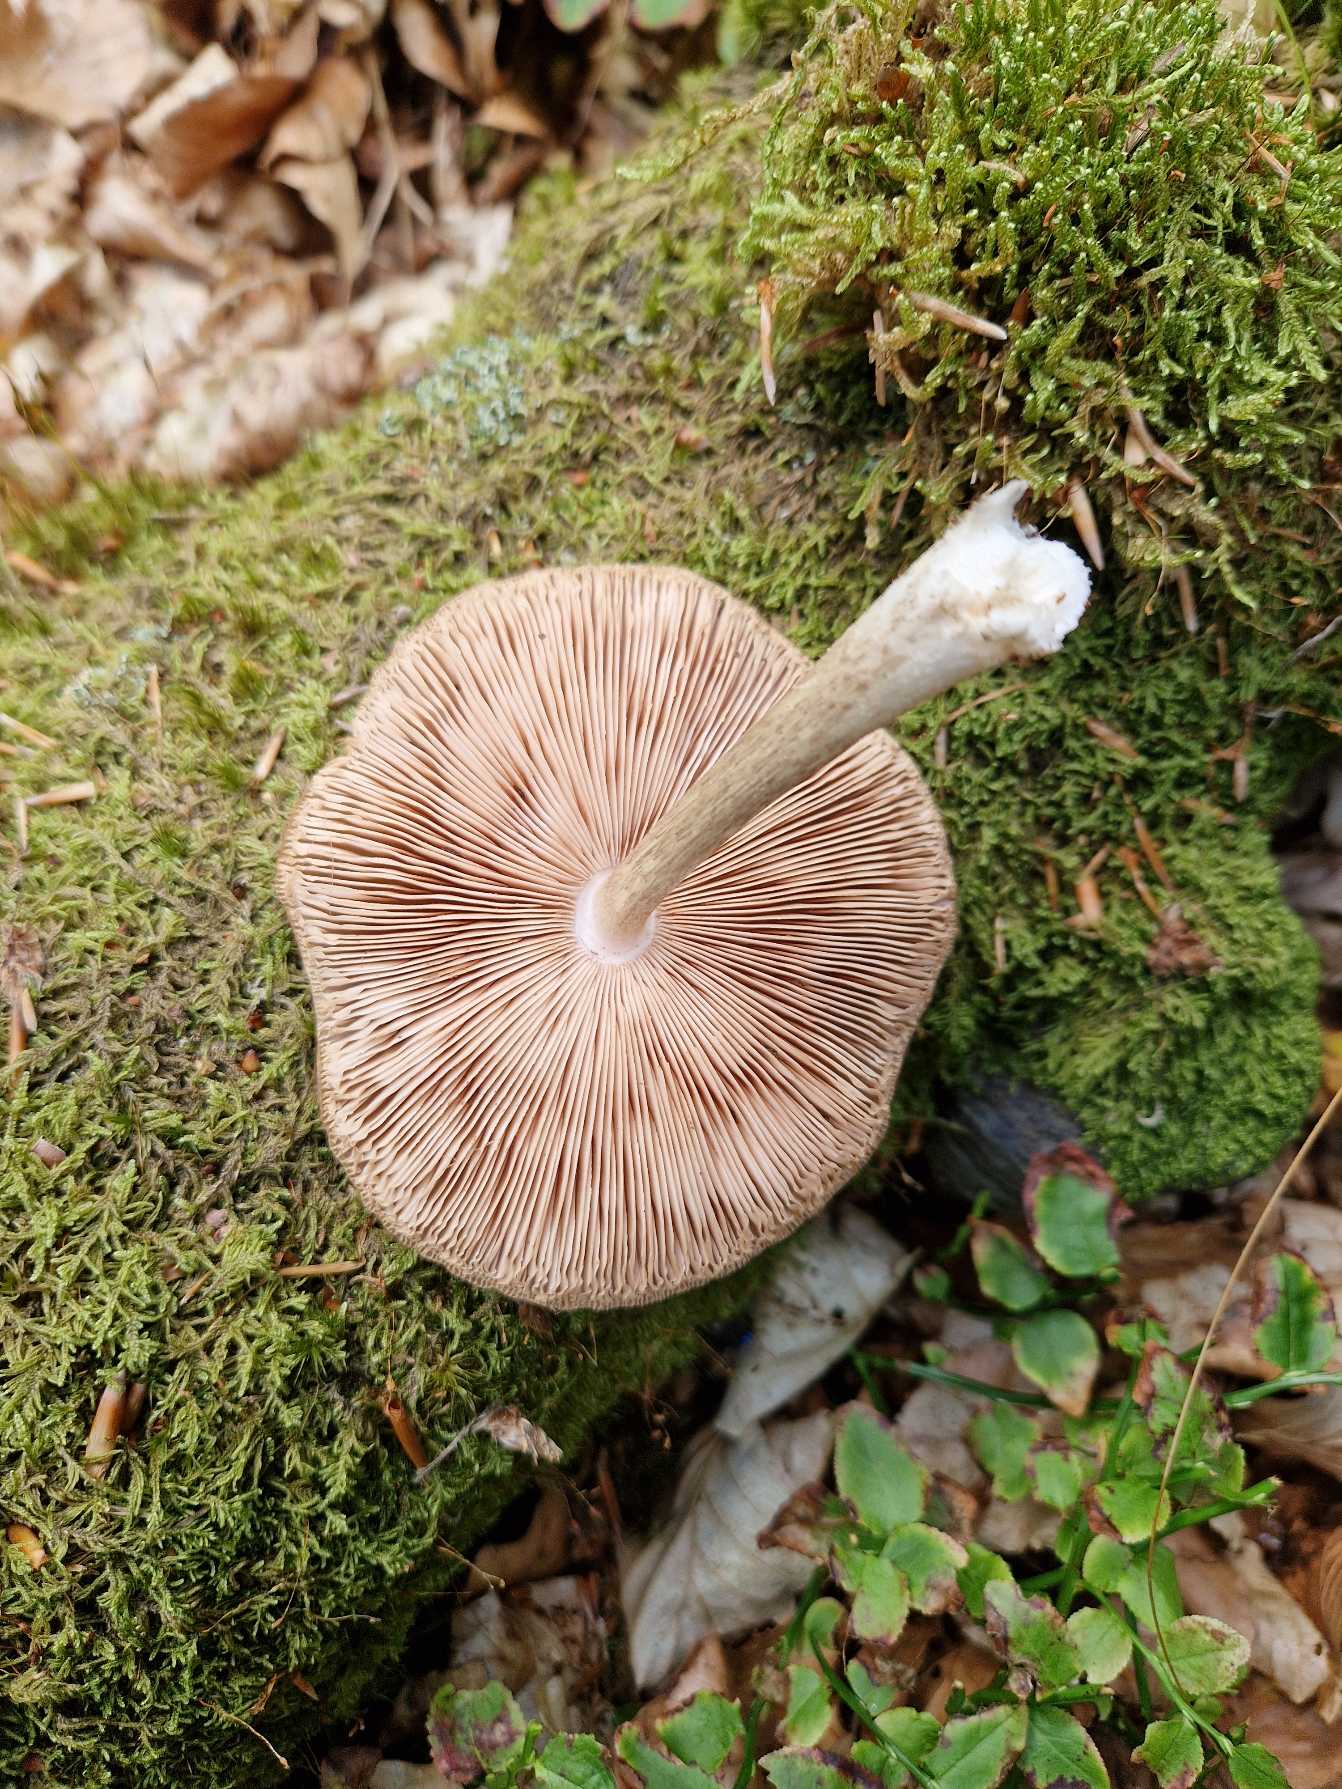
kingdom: Fungi
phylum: Basidiomycota
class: Agaricomycetes
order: Agaricales
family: Pluteaceae
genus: Pluteus
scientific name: Pluteus cervinus
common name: Sodfarvet skærmhat
